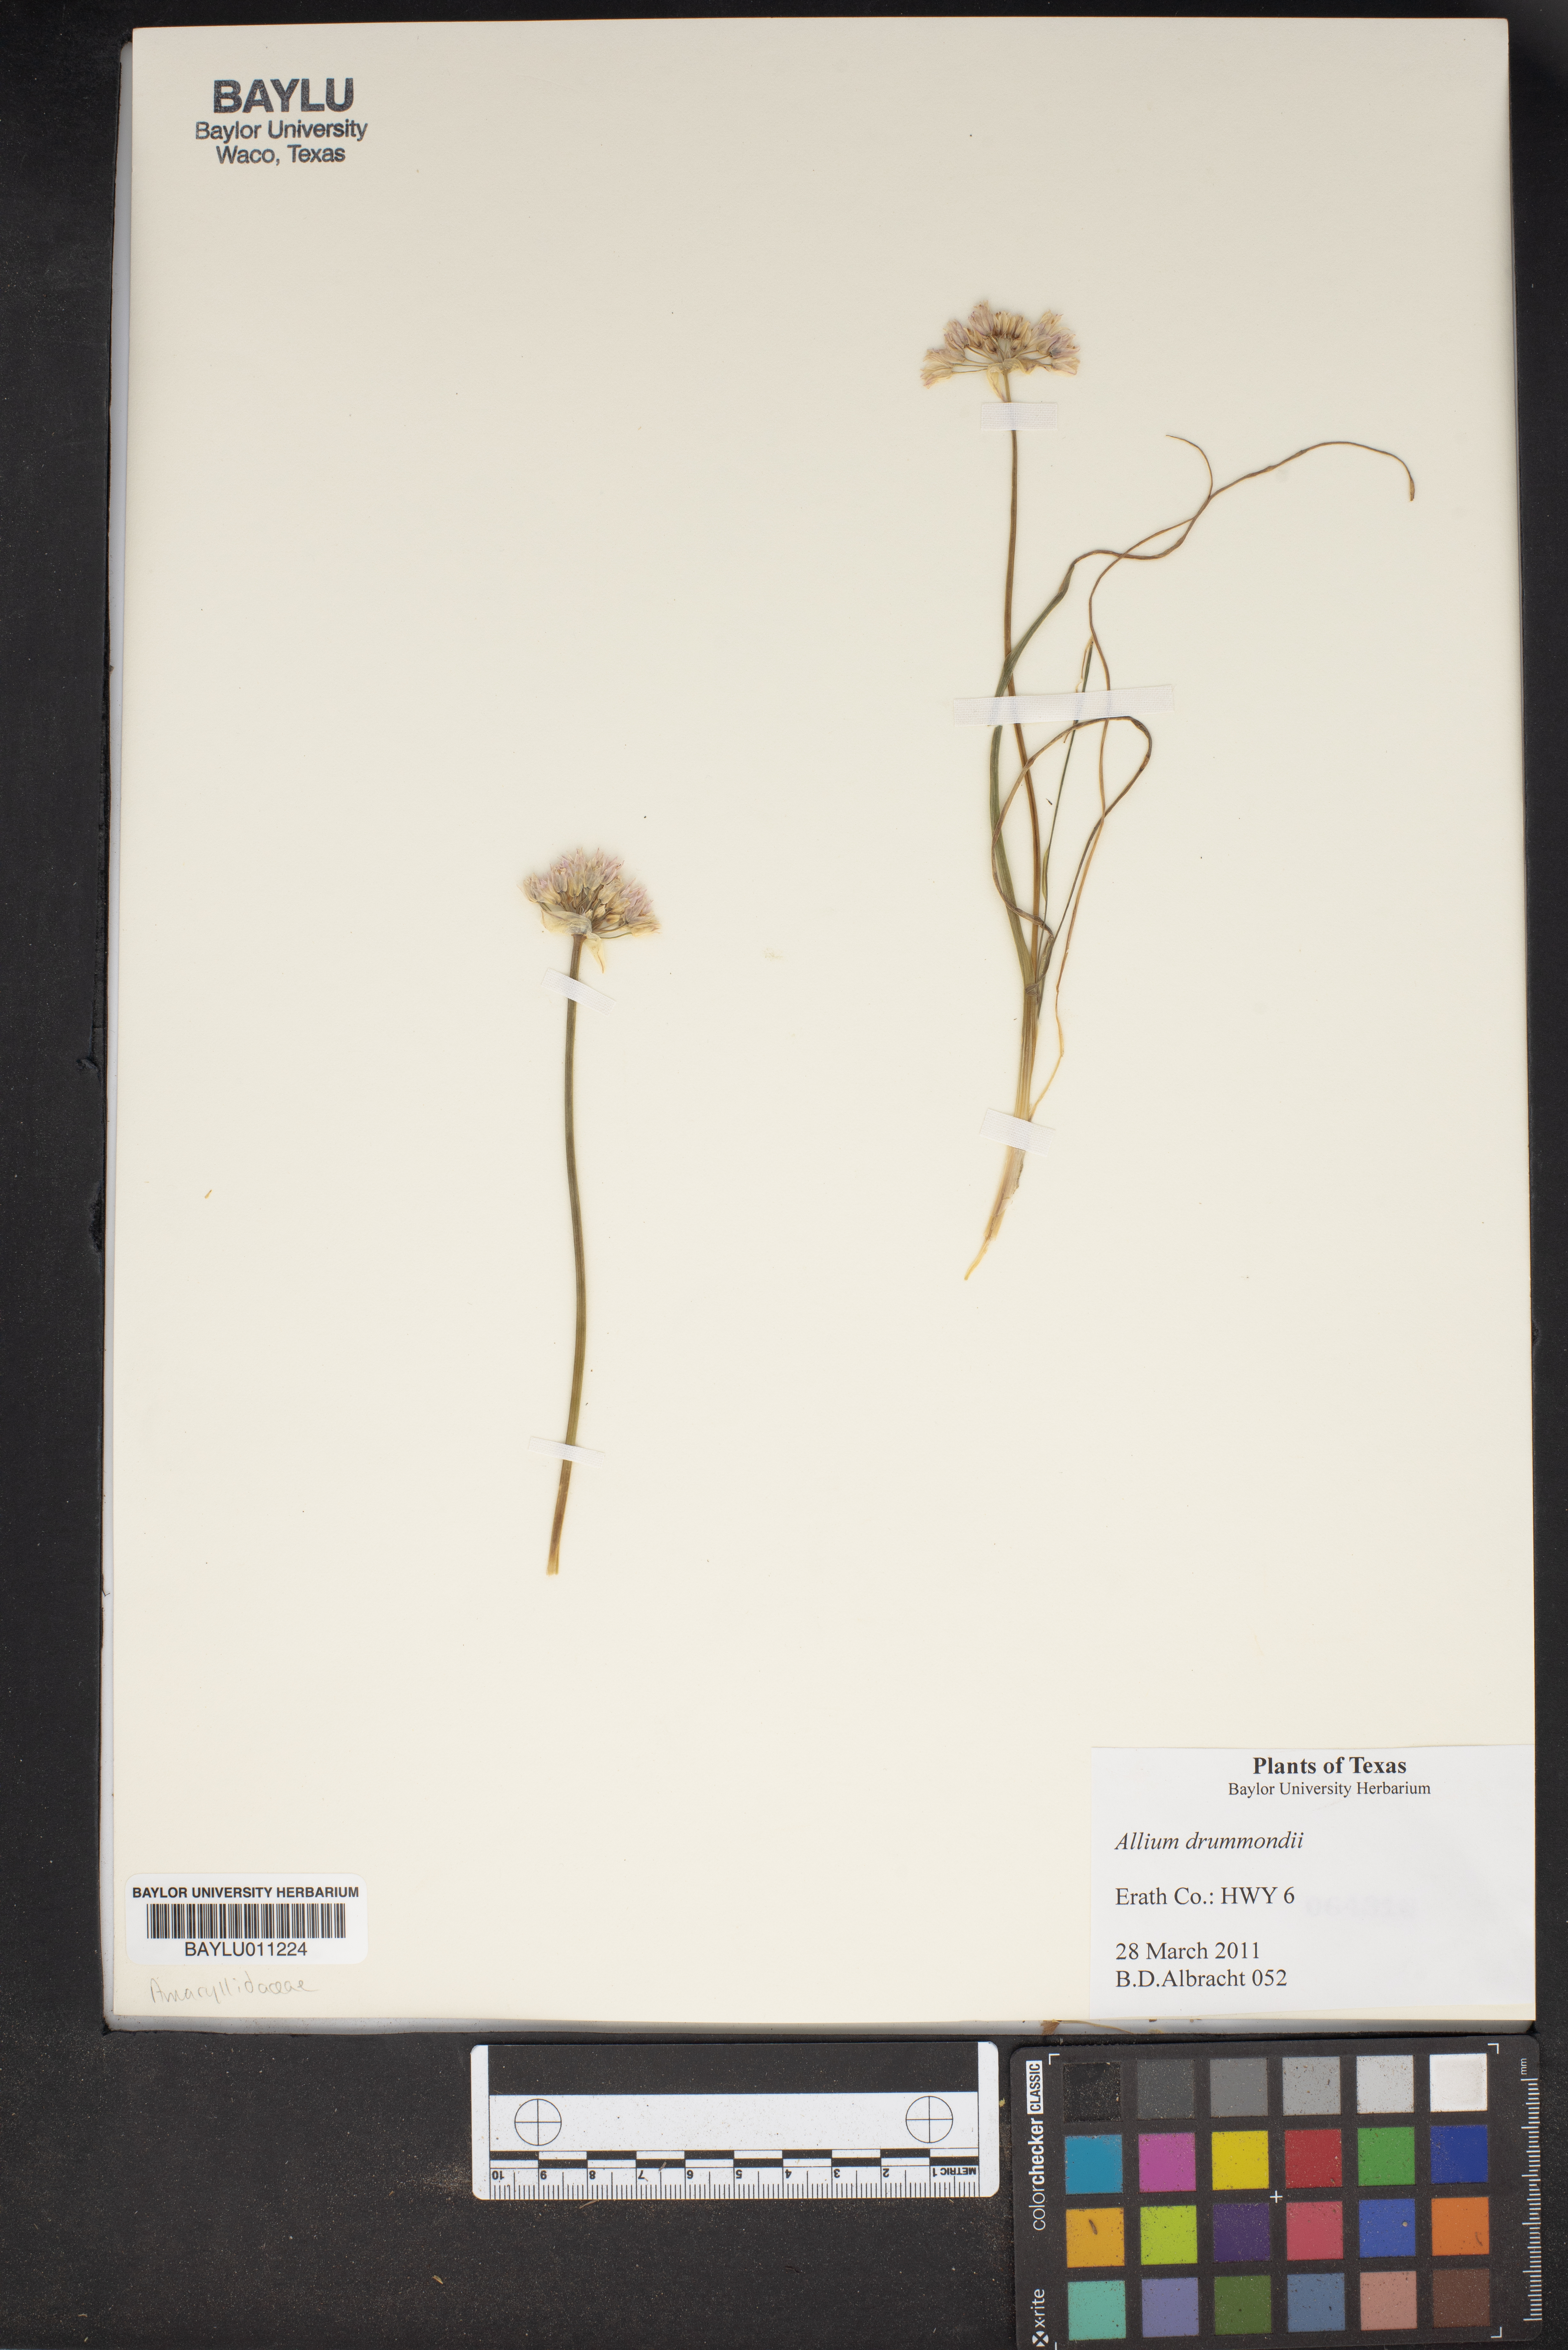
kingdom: Plantae
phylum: Tracheophyta
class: Liliopsida
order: Asparagales
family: Amaryllidaceae
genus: Allium
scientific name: Allium drummondii
